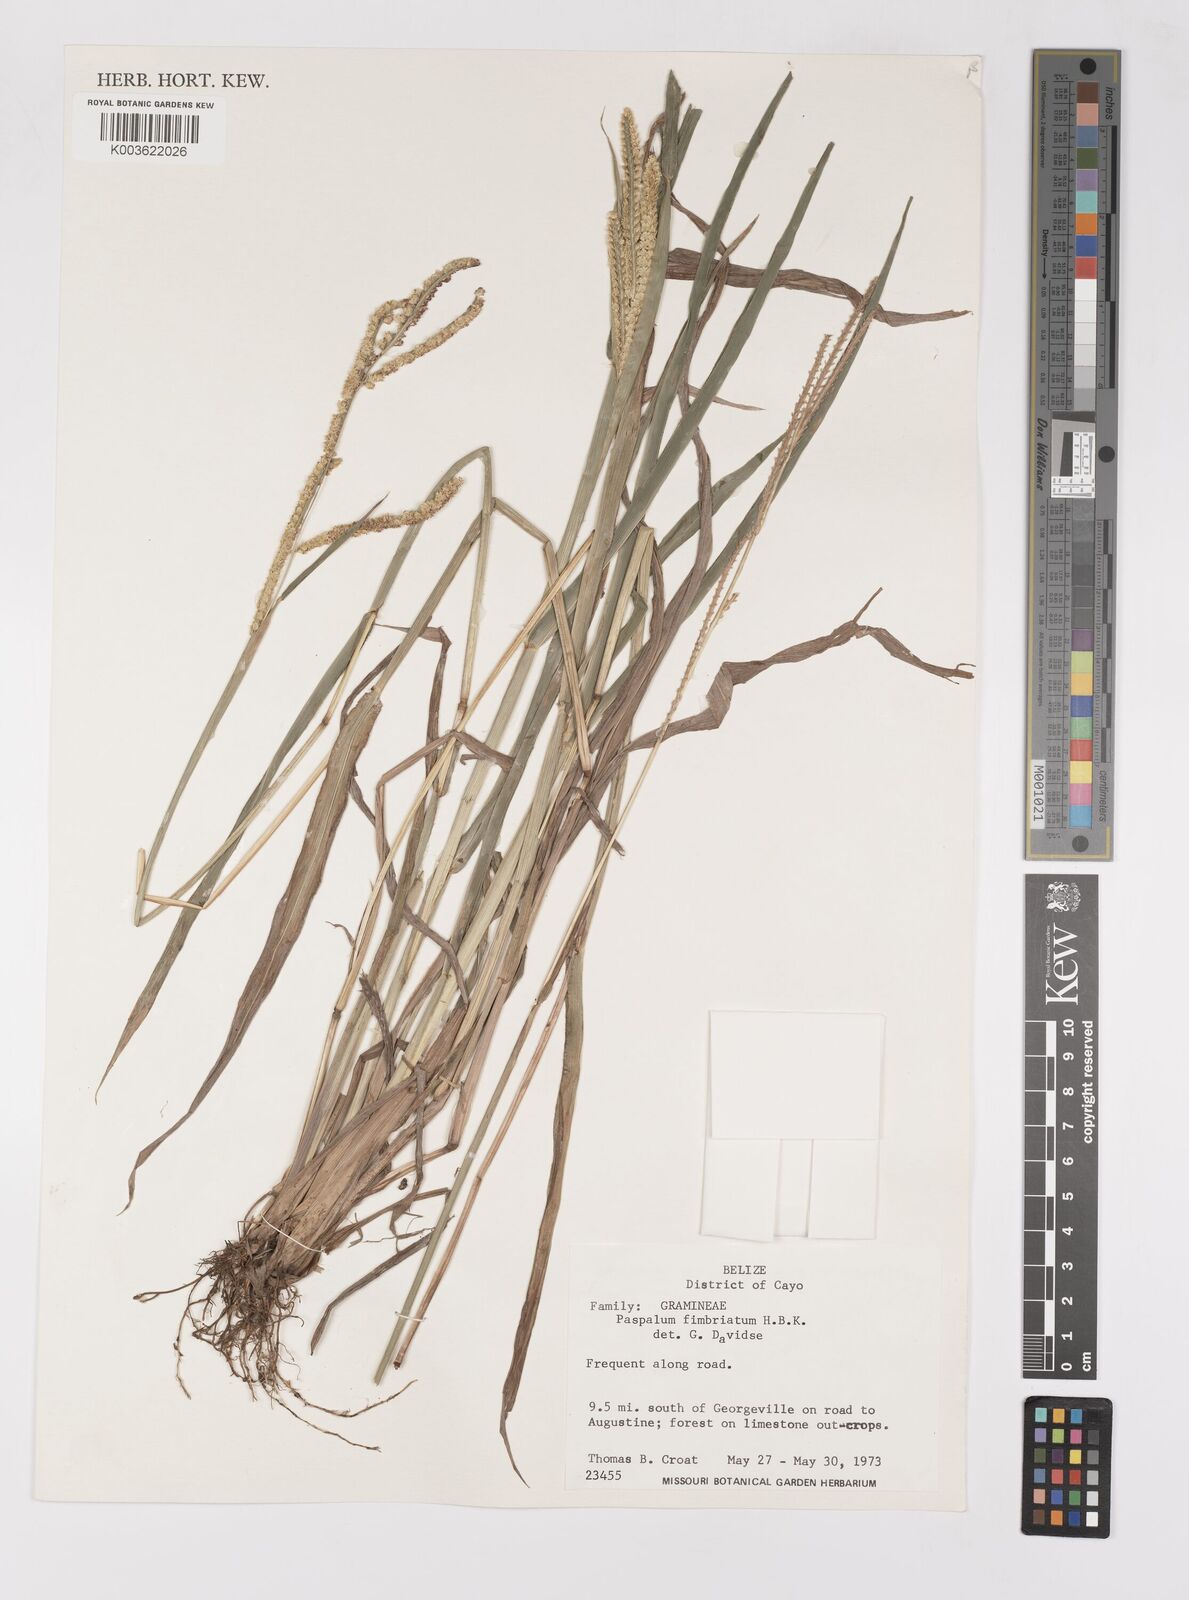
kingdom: Plantae
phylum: Tracheophyta
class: Liliopsida
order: Poales
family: Poaceae
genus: Paspalum
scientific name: Paspalum fimbriatum
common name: Panama crowngrass
